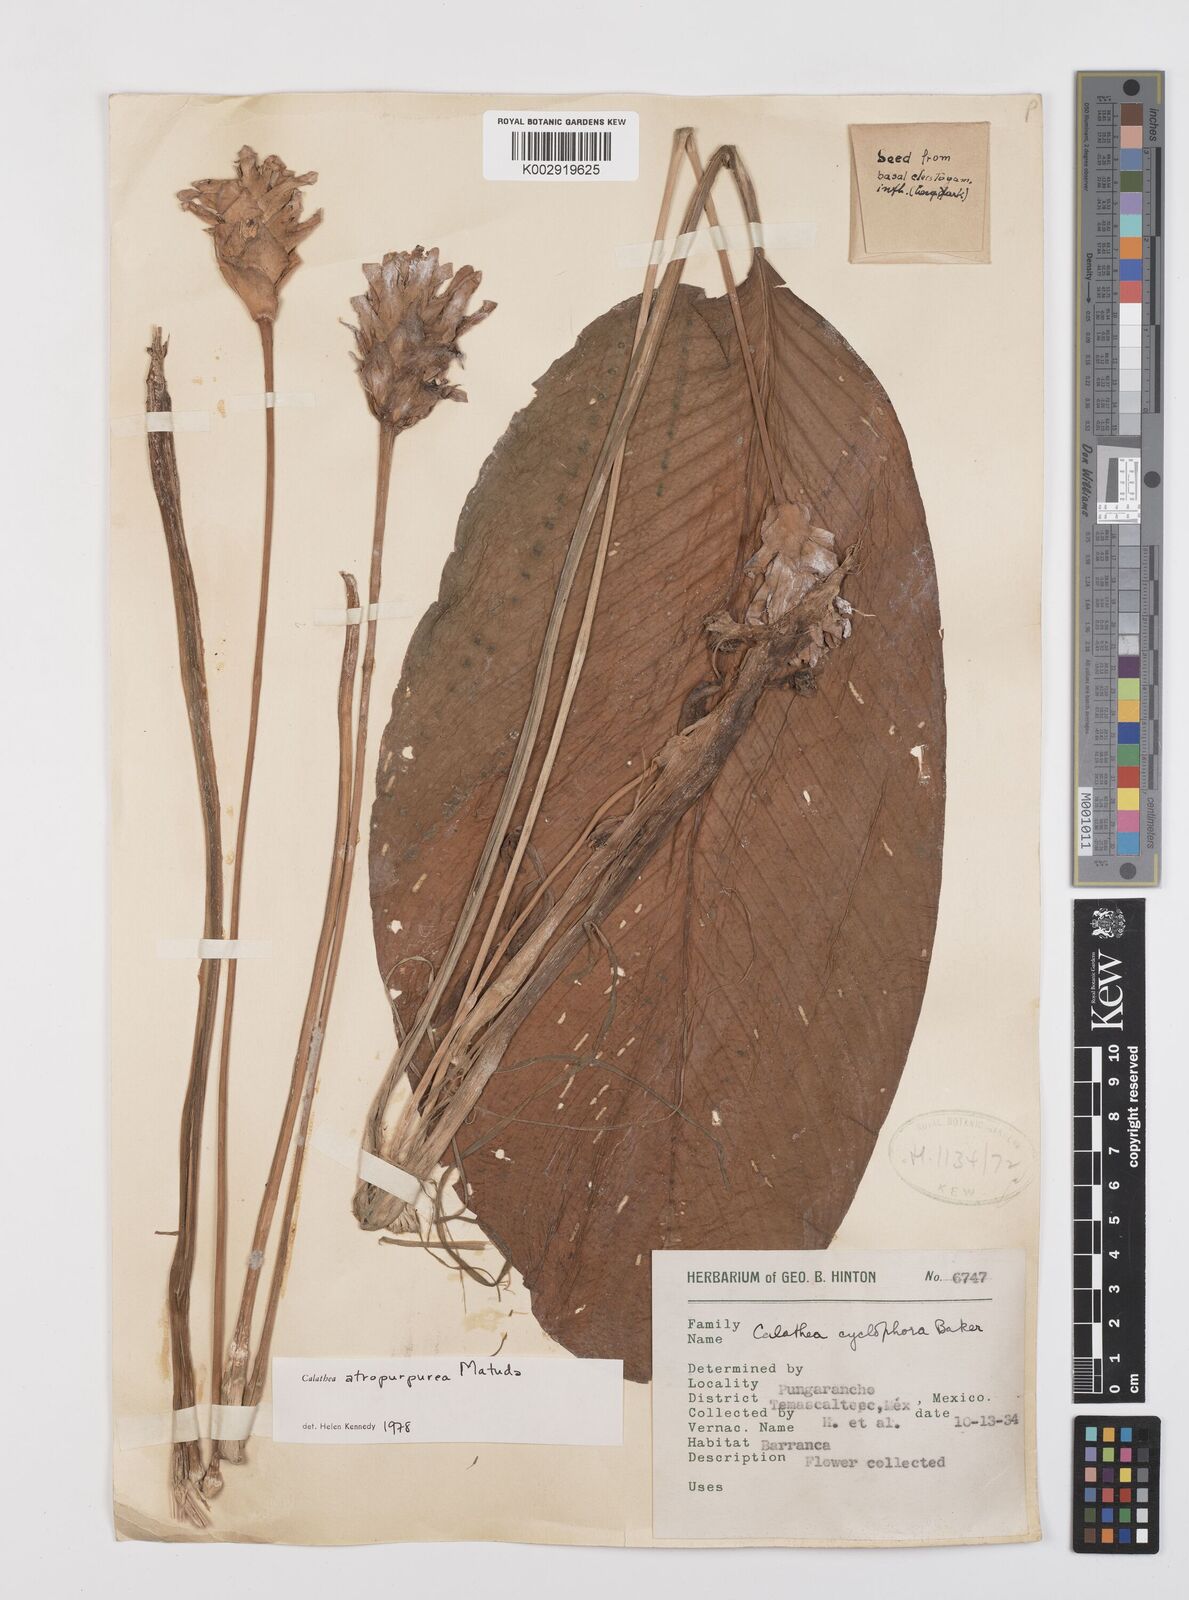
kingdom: Plantae
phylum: Tracheophyta
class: Liliopsida
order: Zingiberales
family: Marantaceae
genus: Goeppertia
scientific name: Goeppertia atropurpurea
